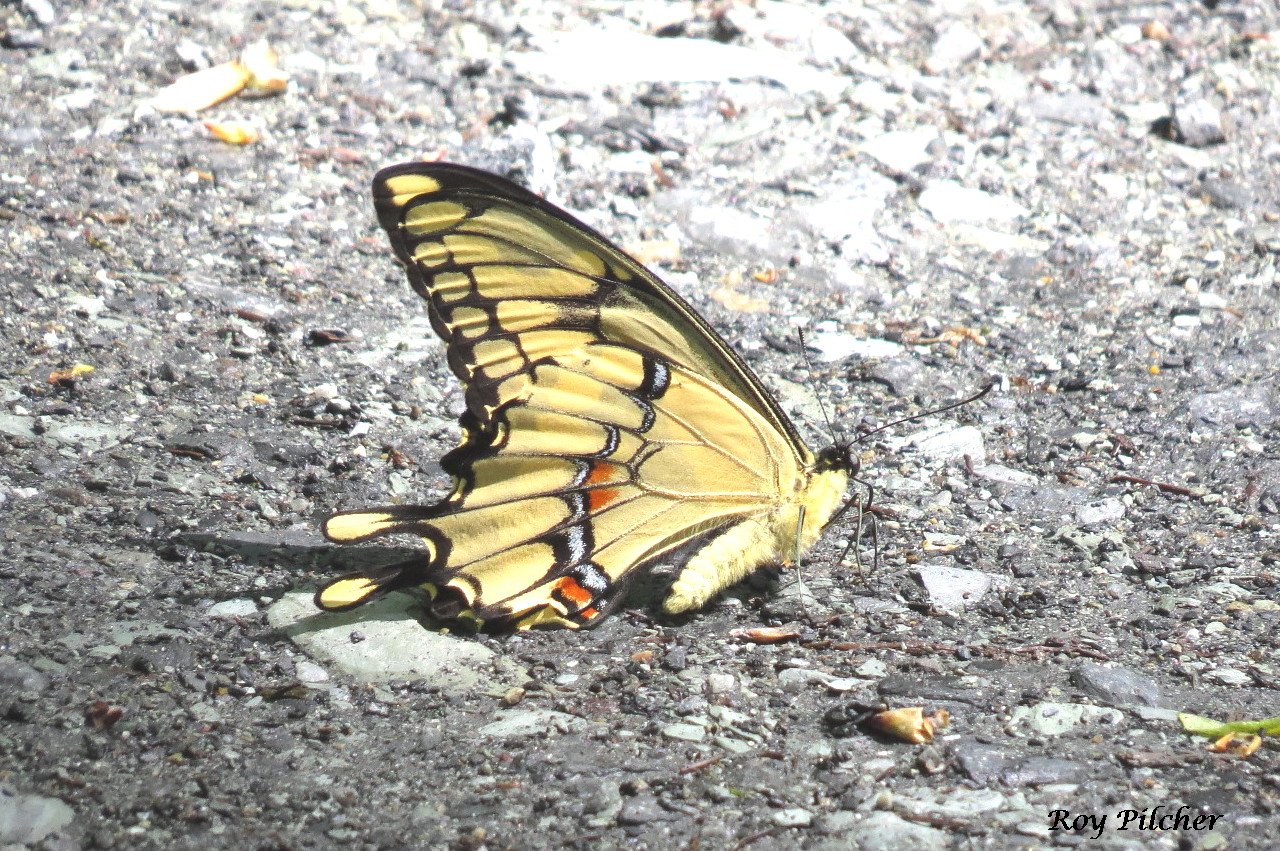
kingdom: Animalia
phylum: Arthropoda
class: Insecta
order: Lepidoptera
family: Papilionidae
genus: Papilio
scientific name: Papilio cresphontes
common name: Eastern Giant Swallowtail
